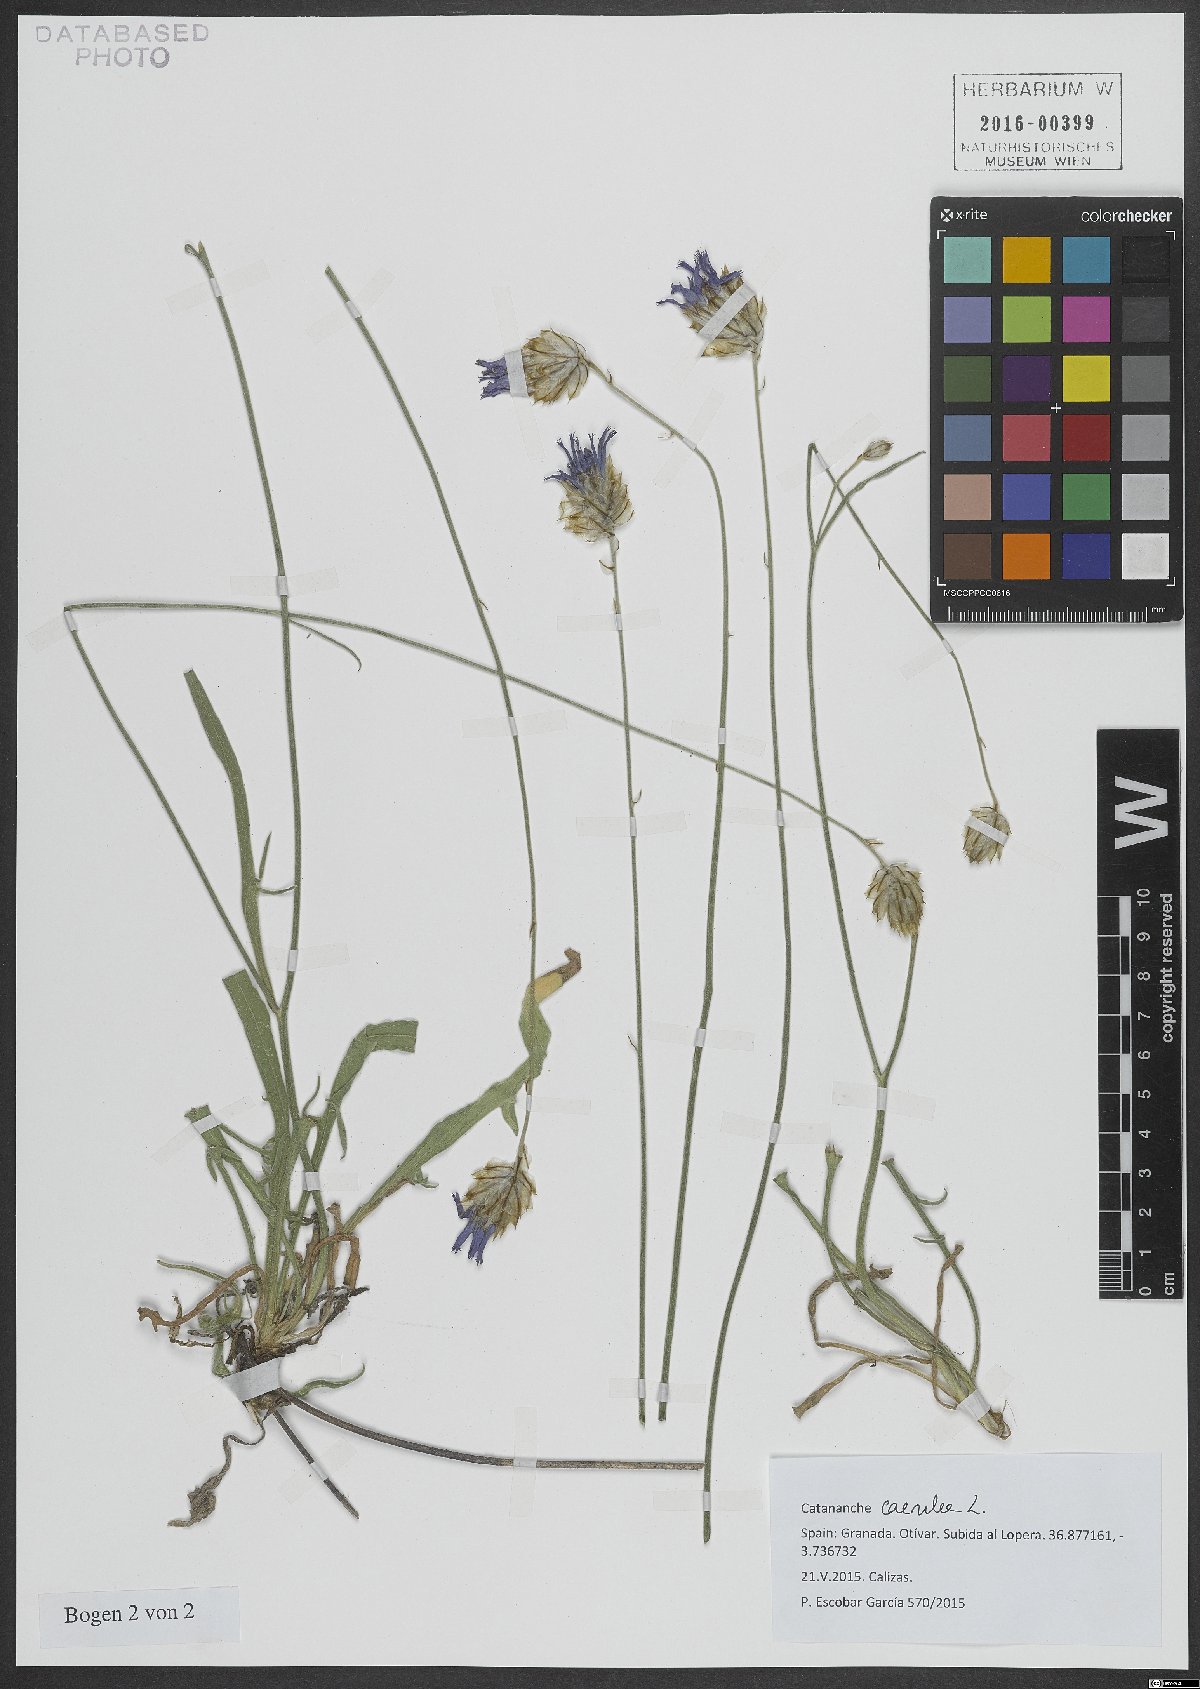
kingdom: Plantae
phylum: Tracheophyta
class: Magnoliopsida
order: Asterales
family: Asteraceae
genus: Catananche
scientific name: Catananche caerulea
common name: Blue cupidone
